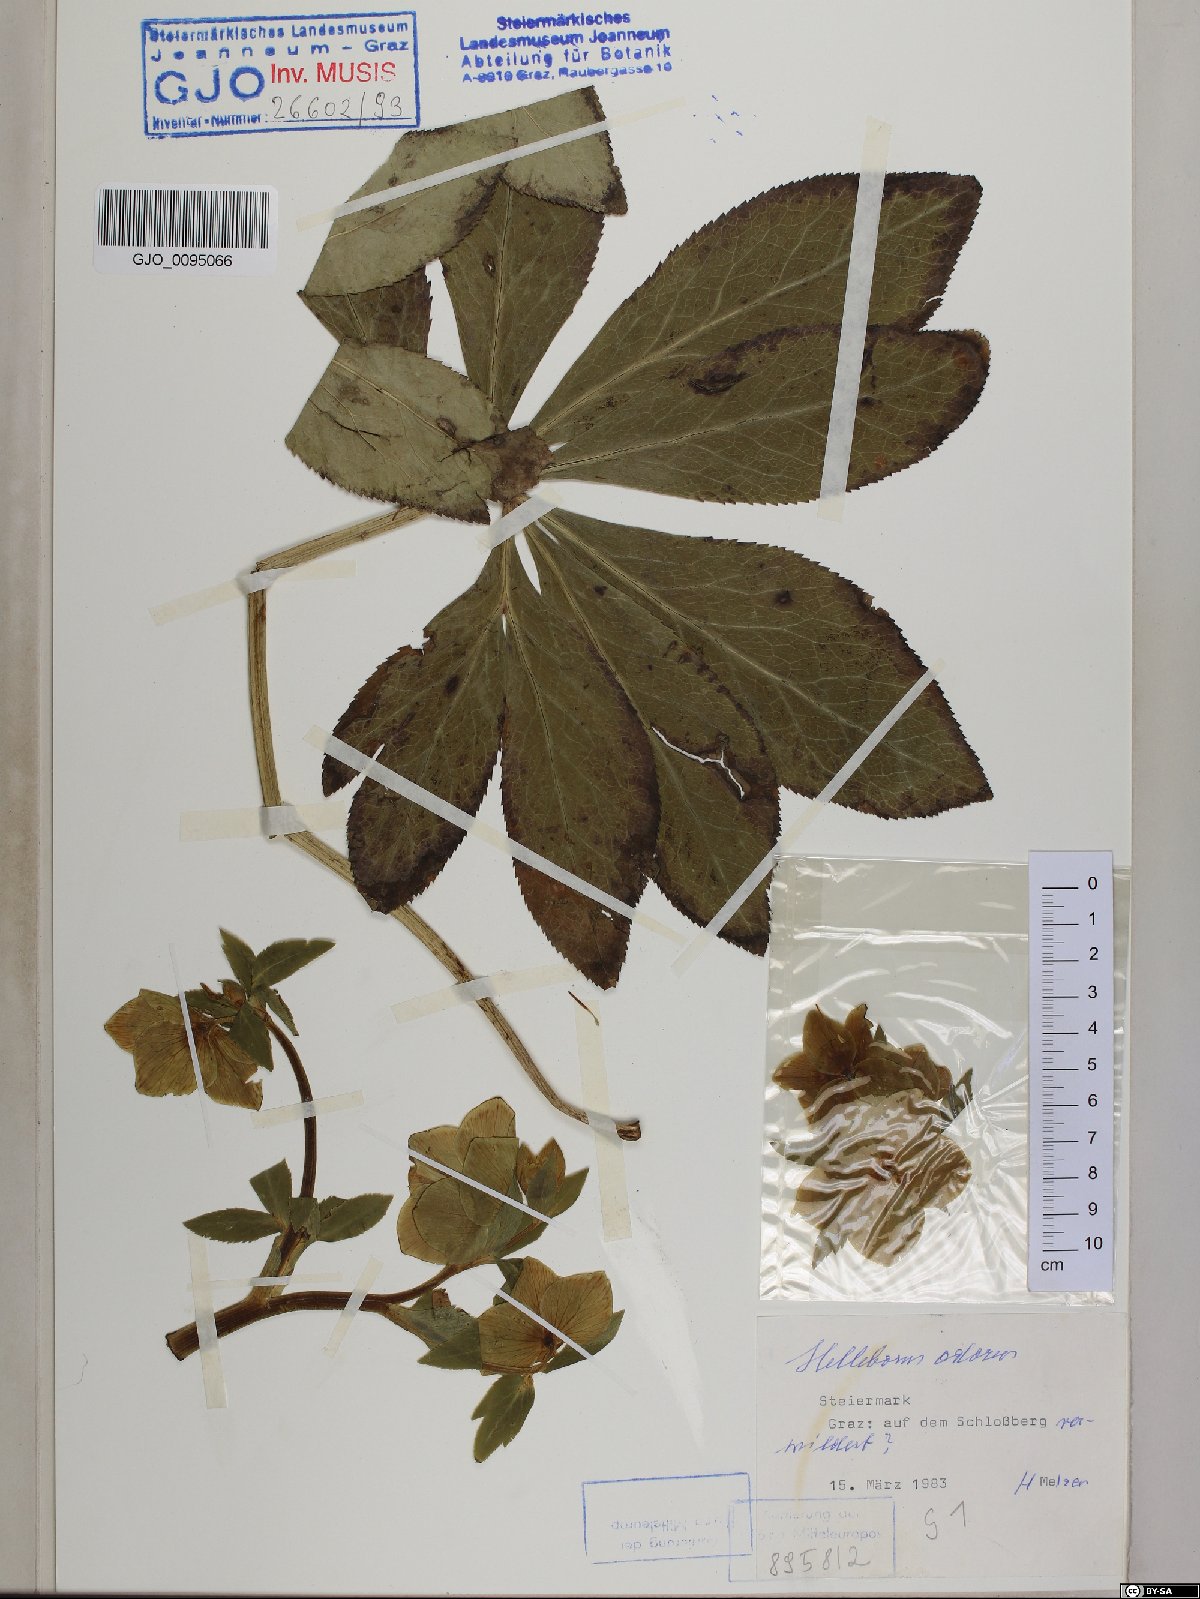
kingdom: Plantae
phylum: Tracheophyta
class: Magnoliopsida
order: Ranunculales
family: Ranunculaceae
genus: Helleborus
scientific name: Helleborus odorus
